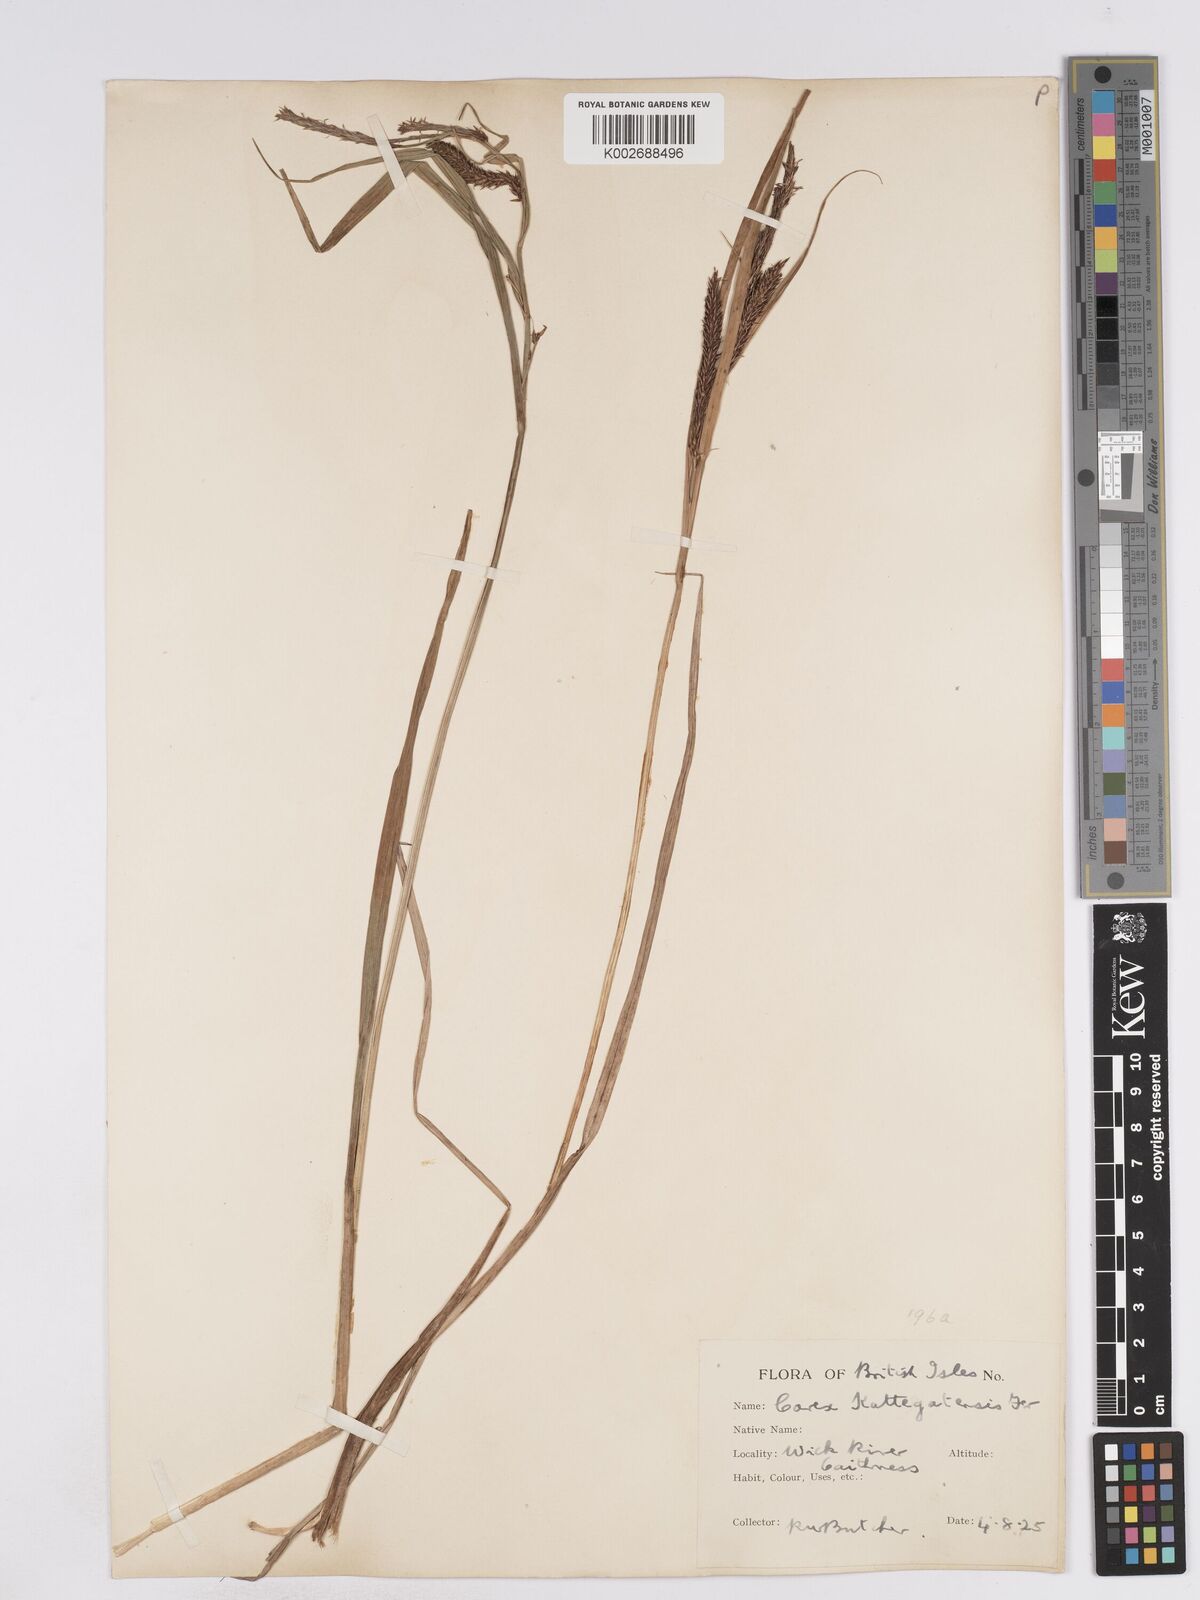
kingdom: Plantae
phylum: Tracheophyta
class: Liliopsida
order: Poales
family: Cyperaceae
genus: Carex
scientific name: Carex recta
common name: Estuarine sedge
